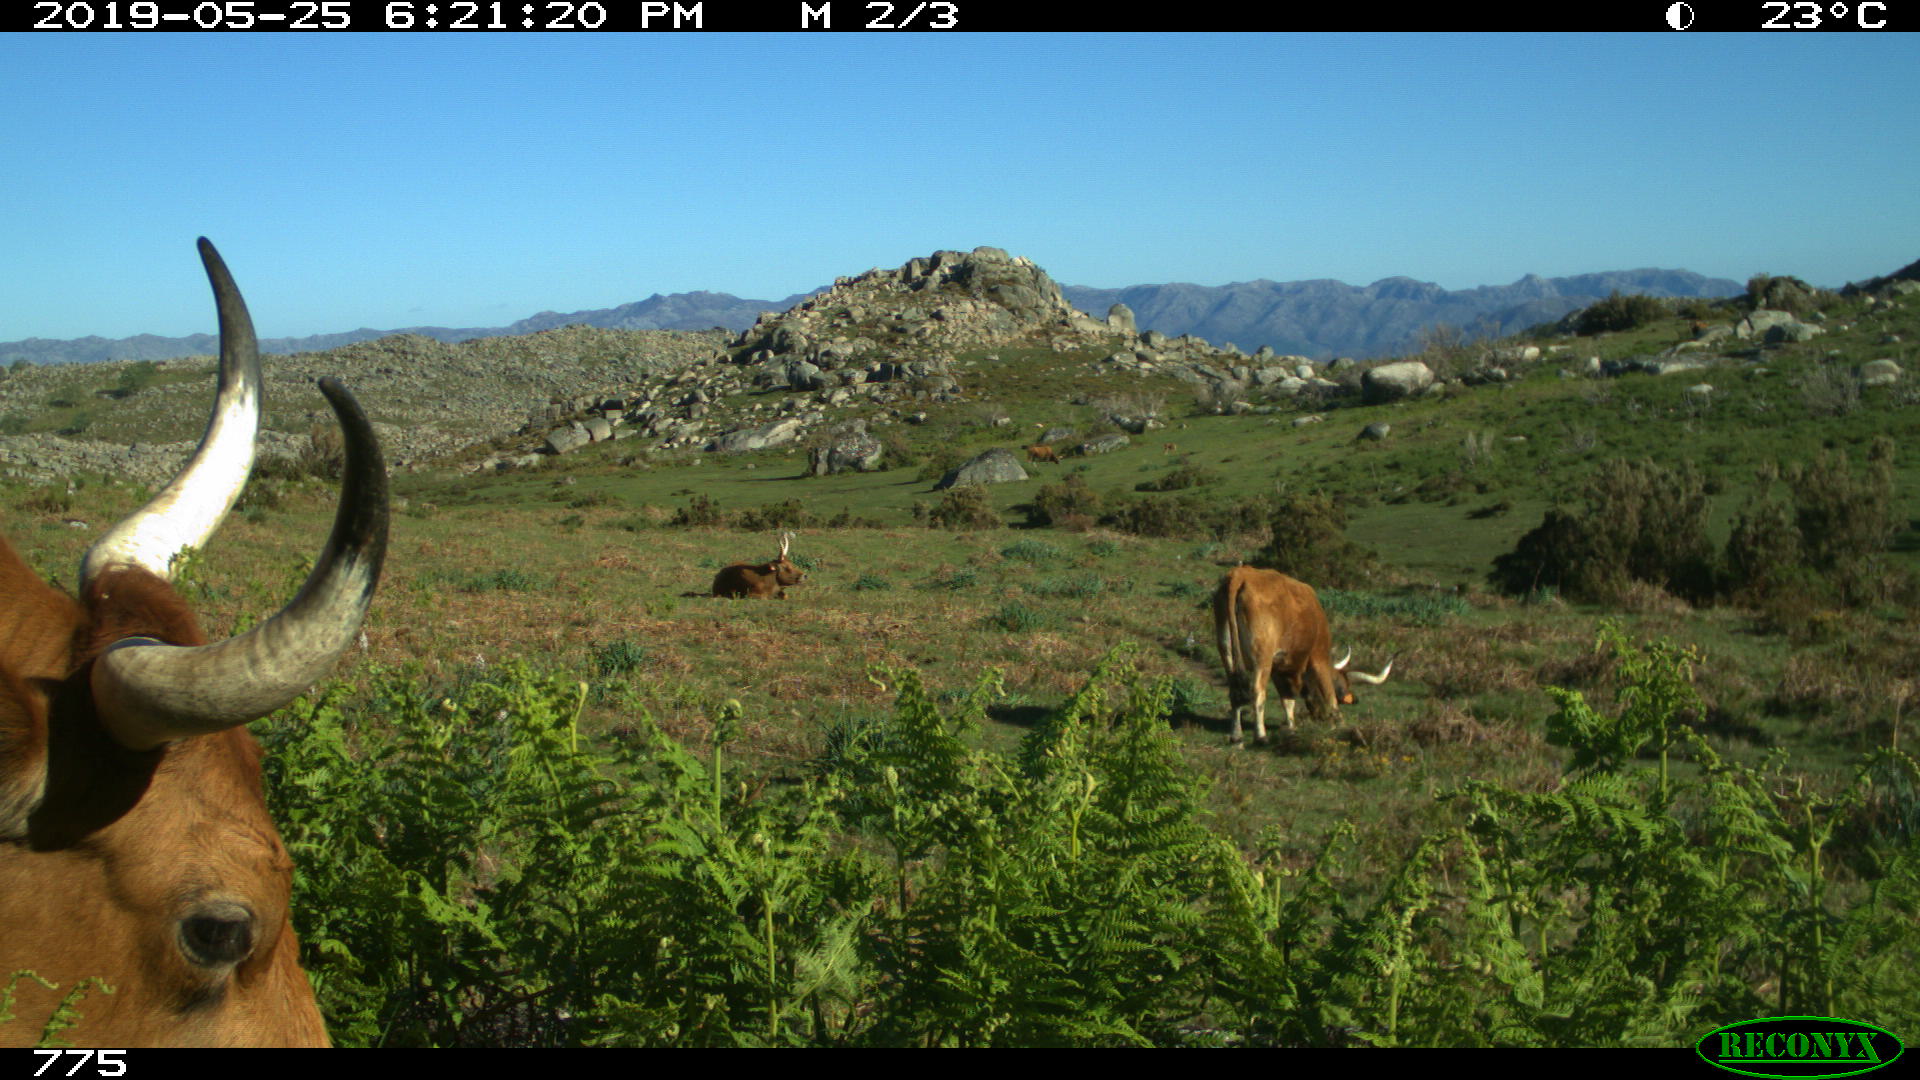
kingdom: Animalia
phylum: Chordata
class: Mammalia
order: Artiodactyla
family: Bovidae
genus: Bos
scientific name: Bos taurus
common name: Domesticated cattle
